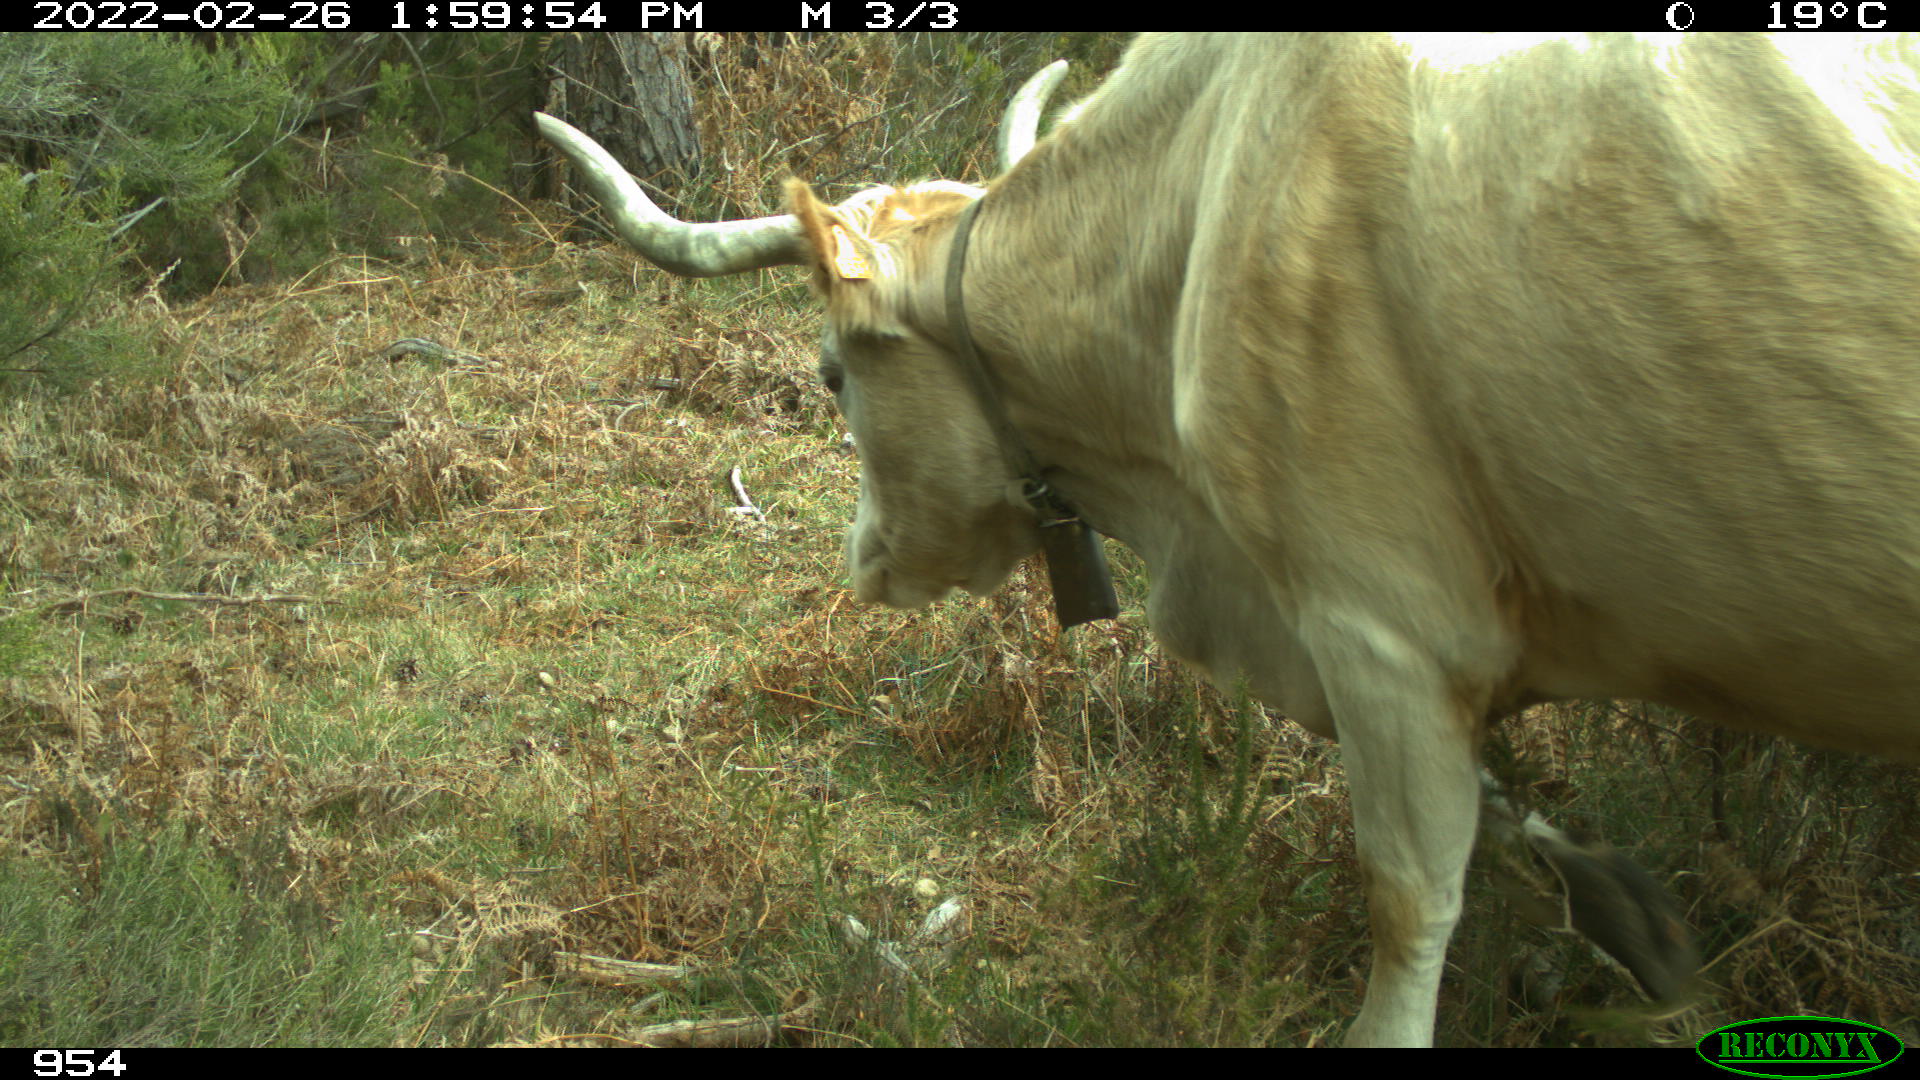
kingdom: Animalia
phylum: Chordata
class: Mammalia
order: Artiodactyla
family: Bovidae
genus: Bos
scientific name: Bos taurus
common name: Domesticated cattle
